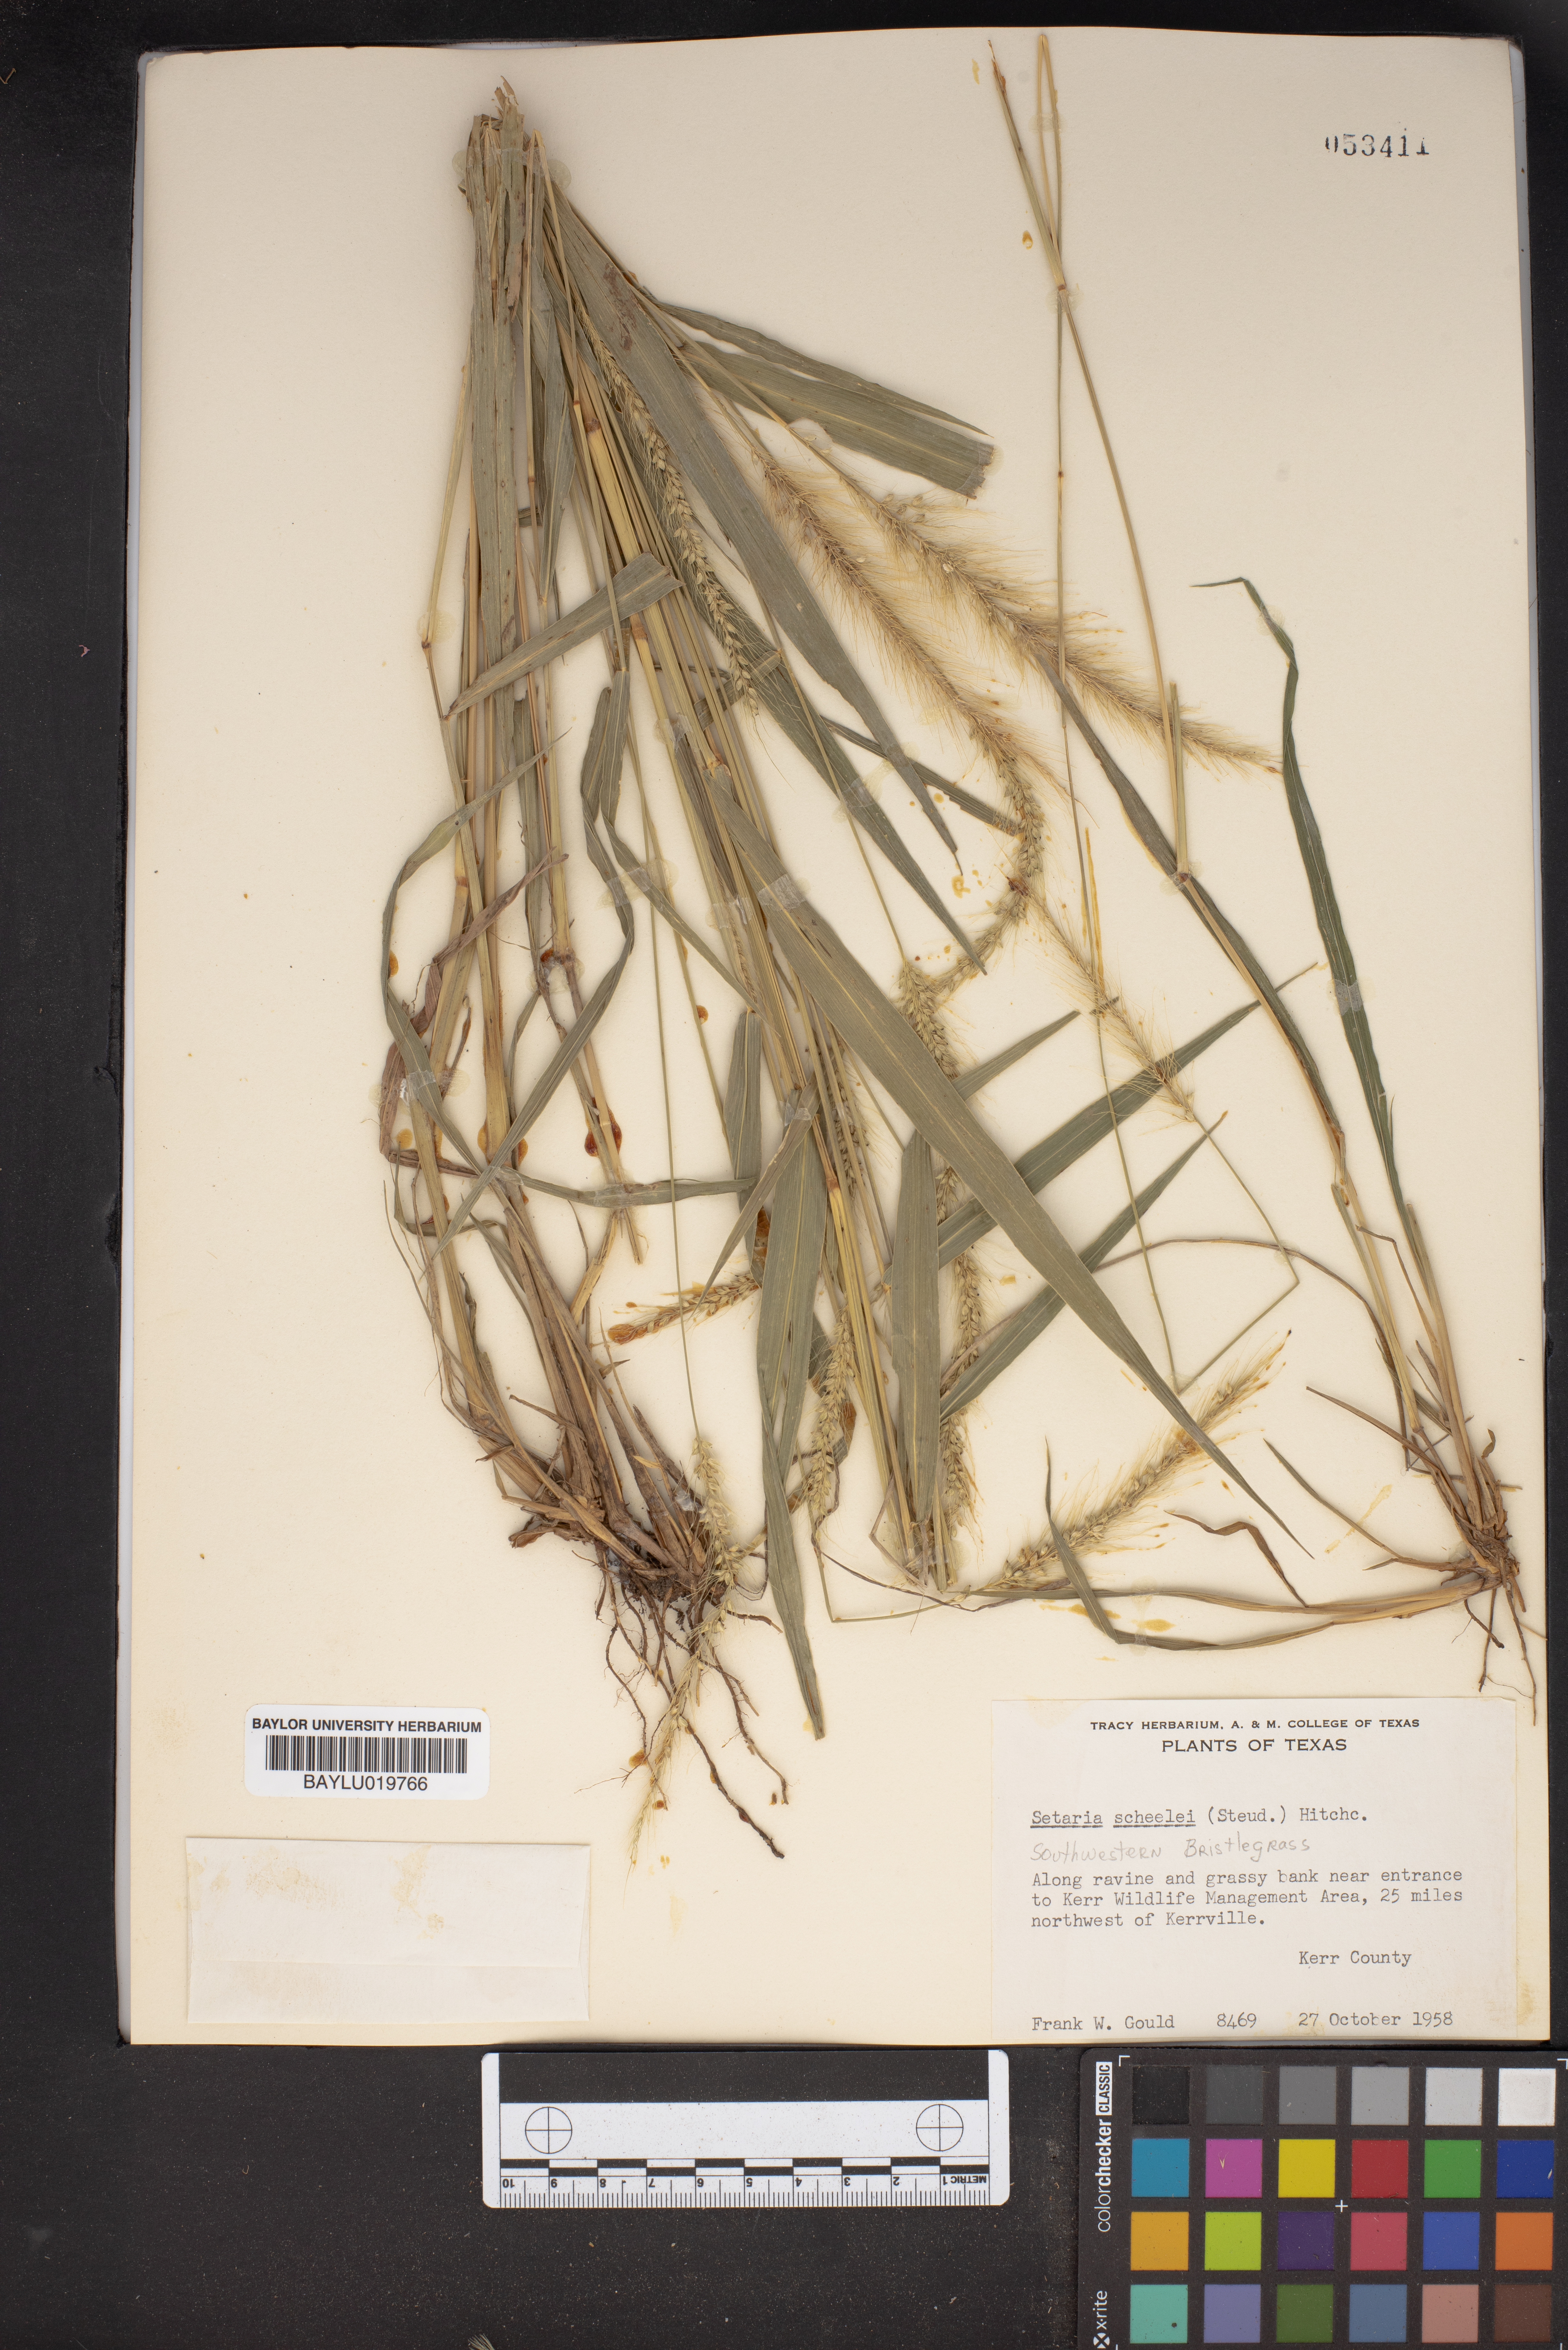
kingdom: Plantae
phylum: Tracheophyta
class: Liliopsida
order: Poales
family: Poaceae
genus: Setaria
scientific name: Setaria scheelei
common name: Southwestern bristle grass
